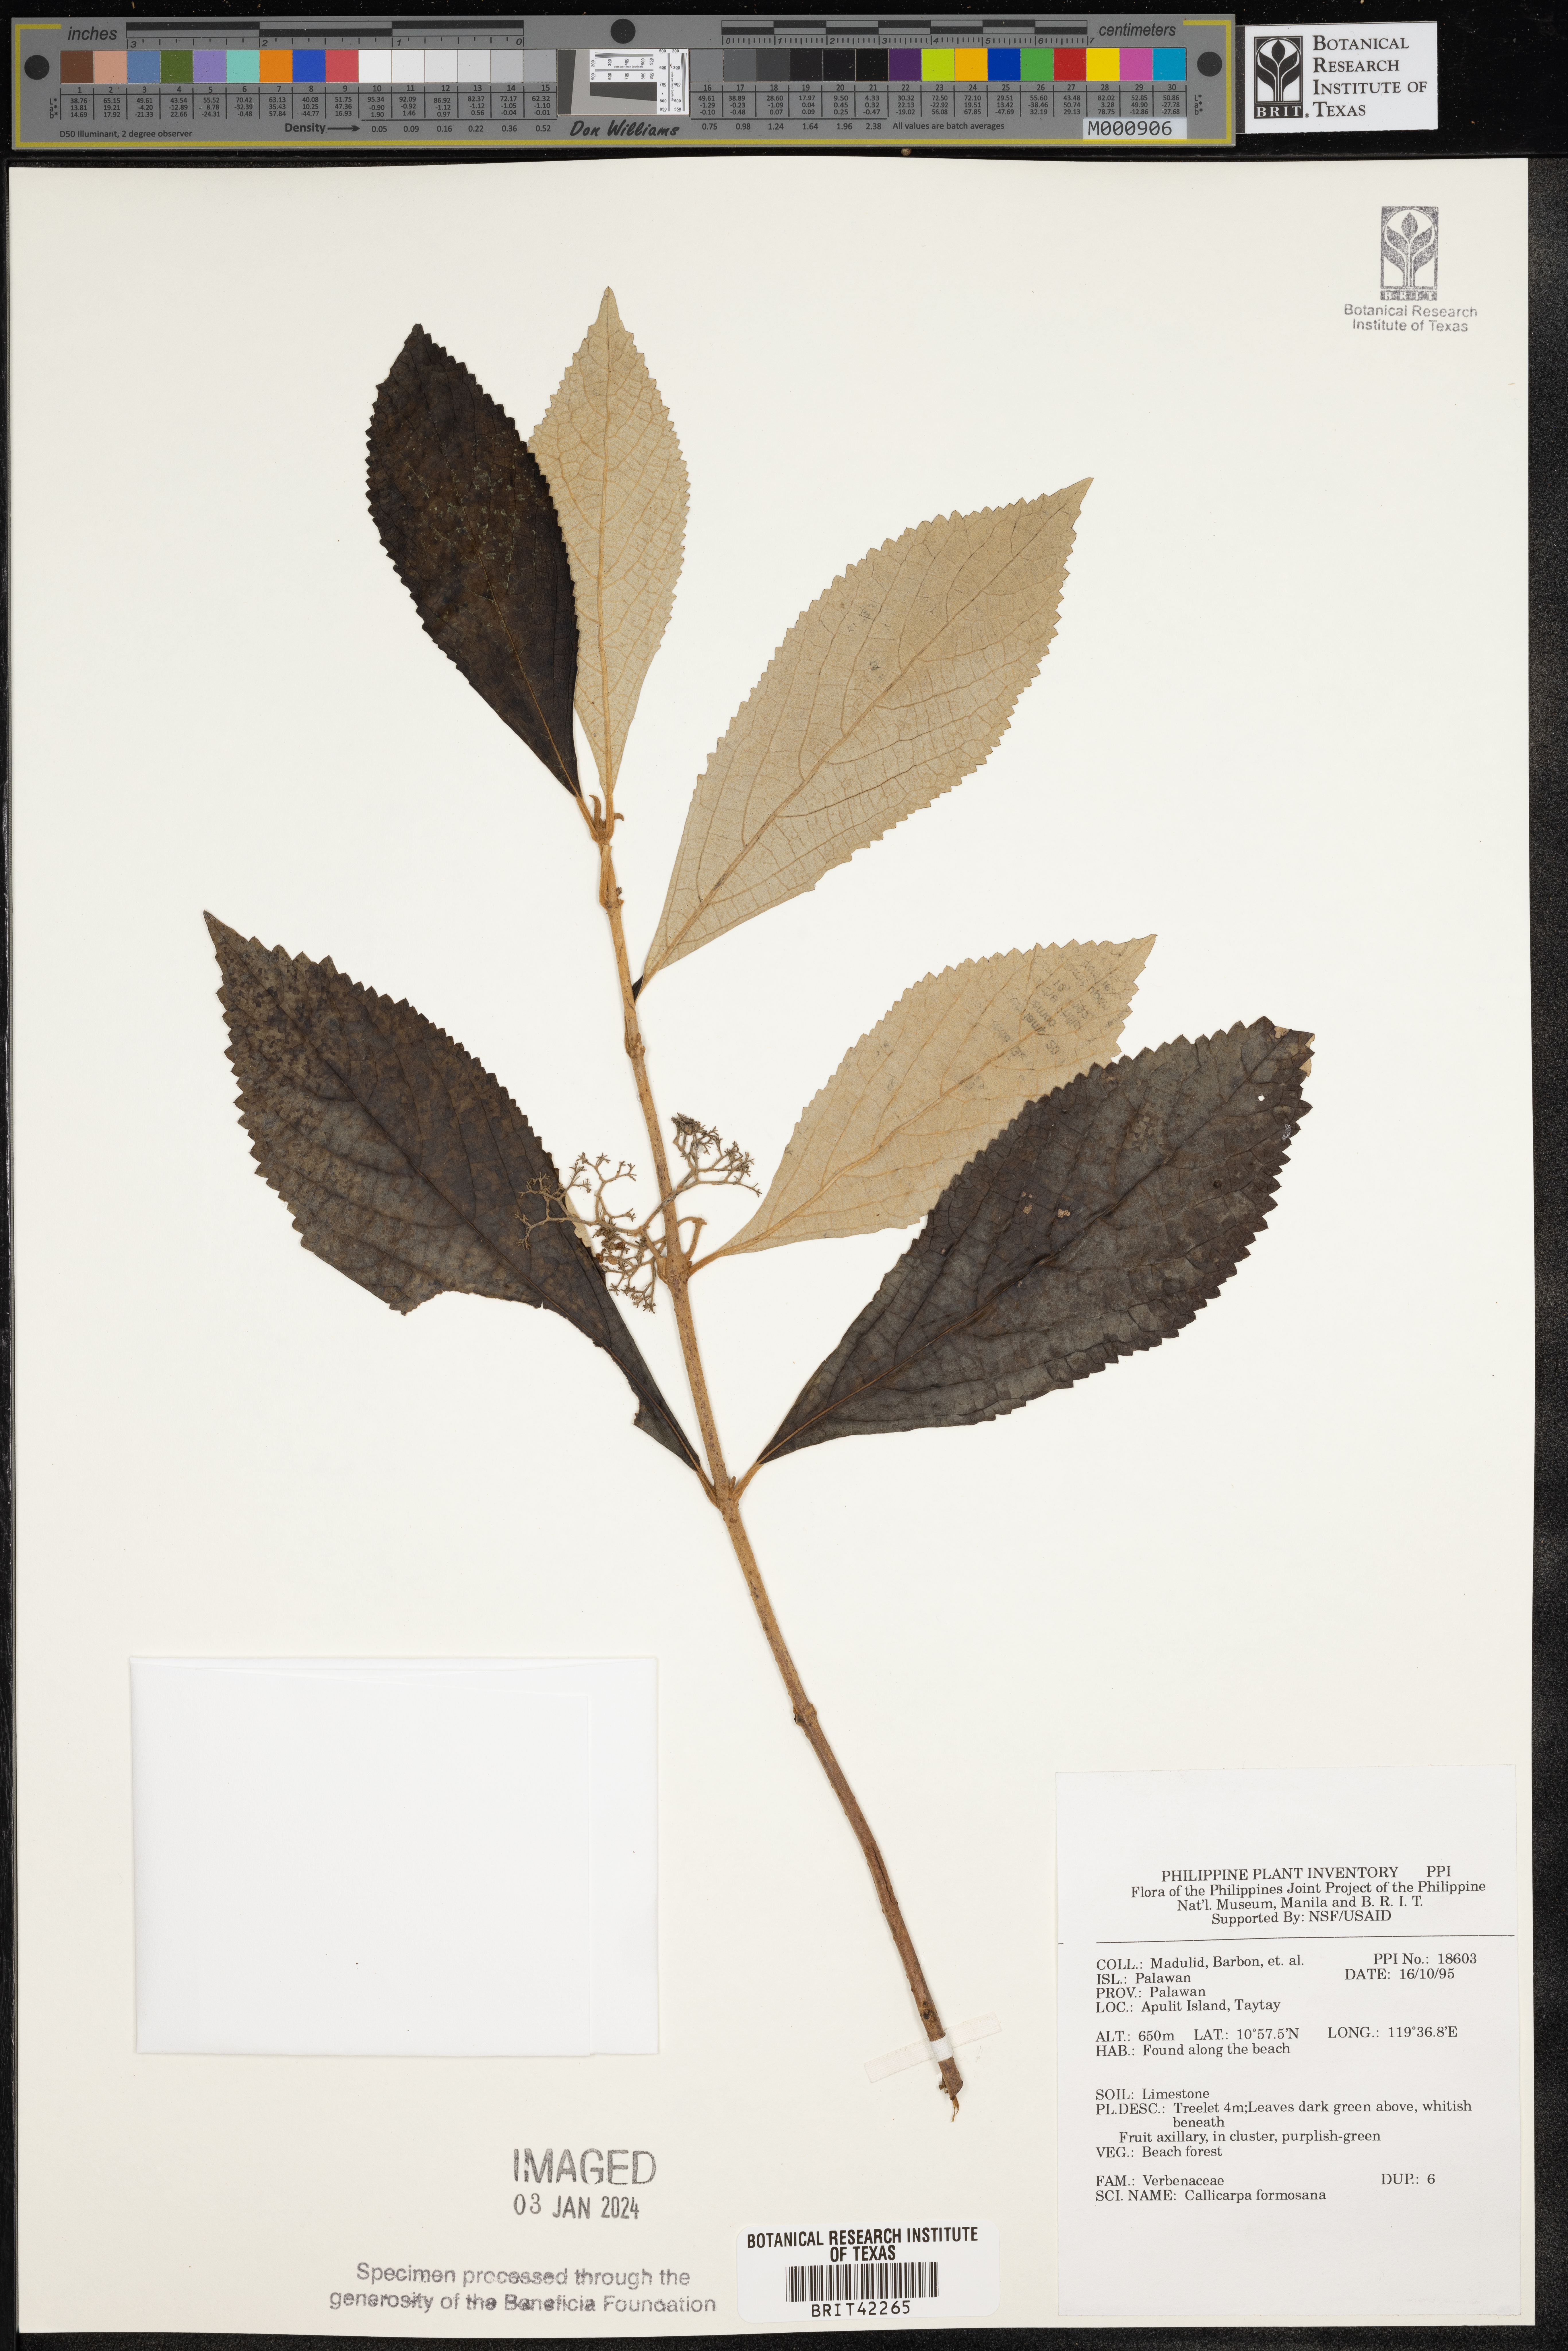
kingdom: Plantae
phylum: Tracheophyta
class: Magnoliopsida
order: Lamiales
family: Lamiaceae
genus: Callicarpa
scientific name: Callicarpa pedunculata
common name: Velvetleaf
